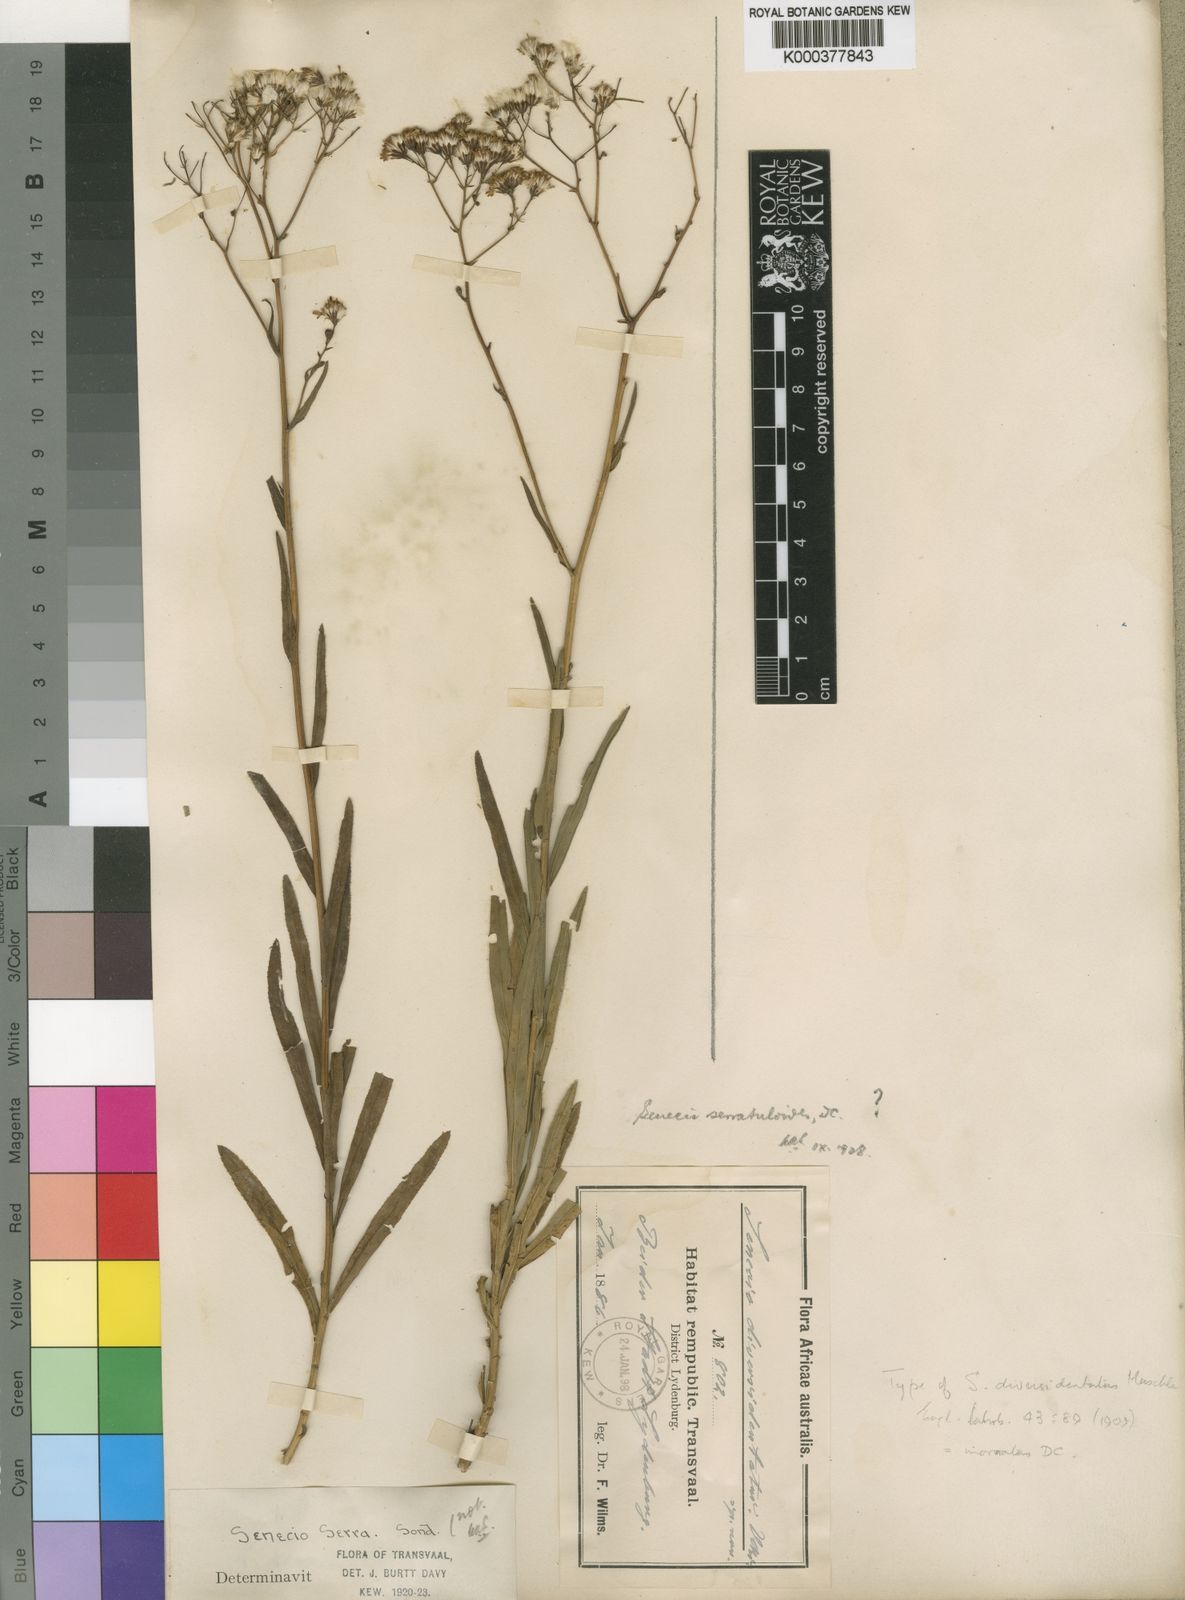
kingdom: Plantae
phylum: Tracheophyta
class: Magnoliopsida
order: Asterales
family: Asteraceae
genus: Senecio
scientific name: Senecio inornatus
